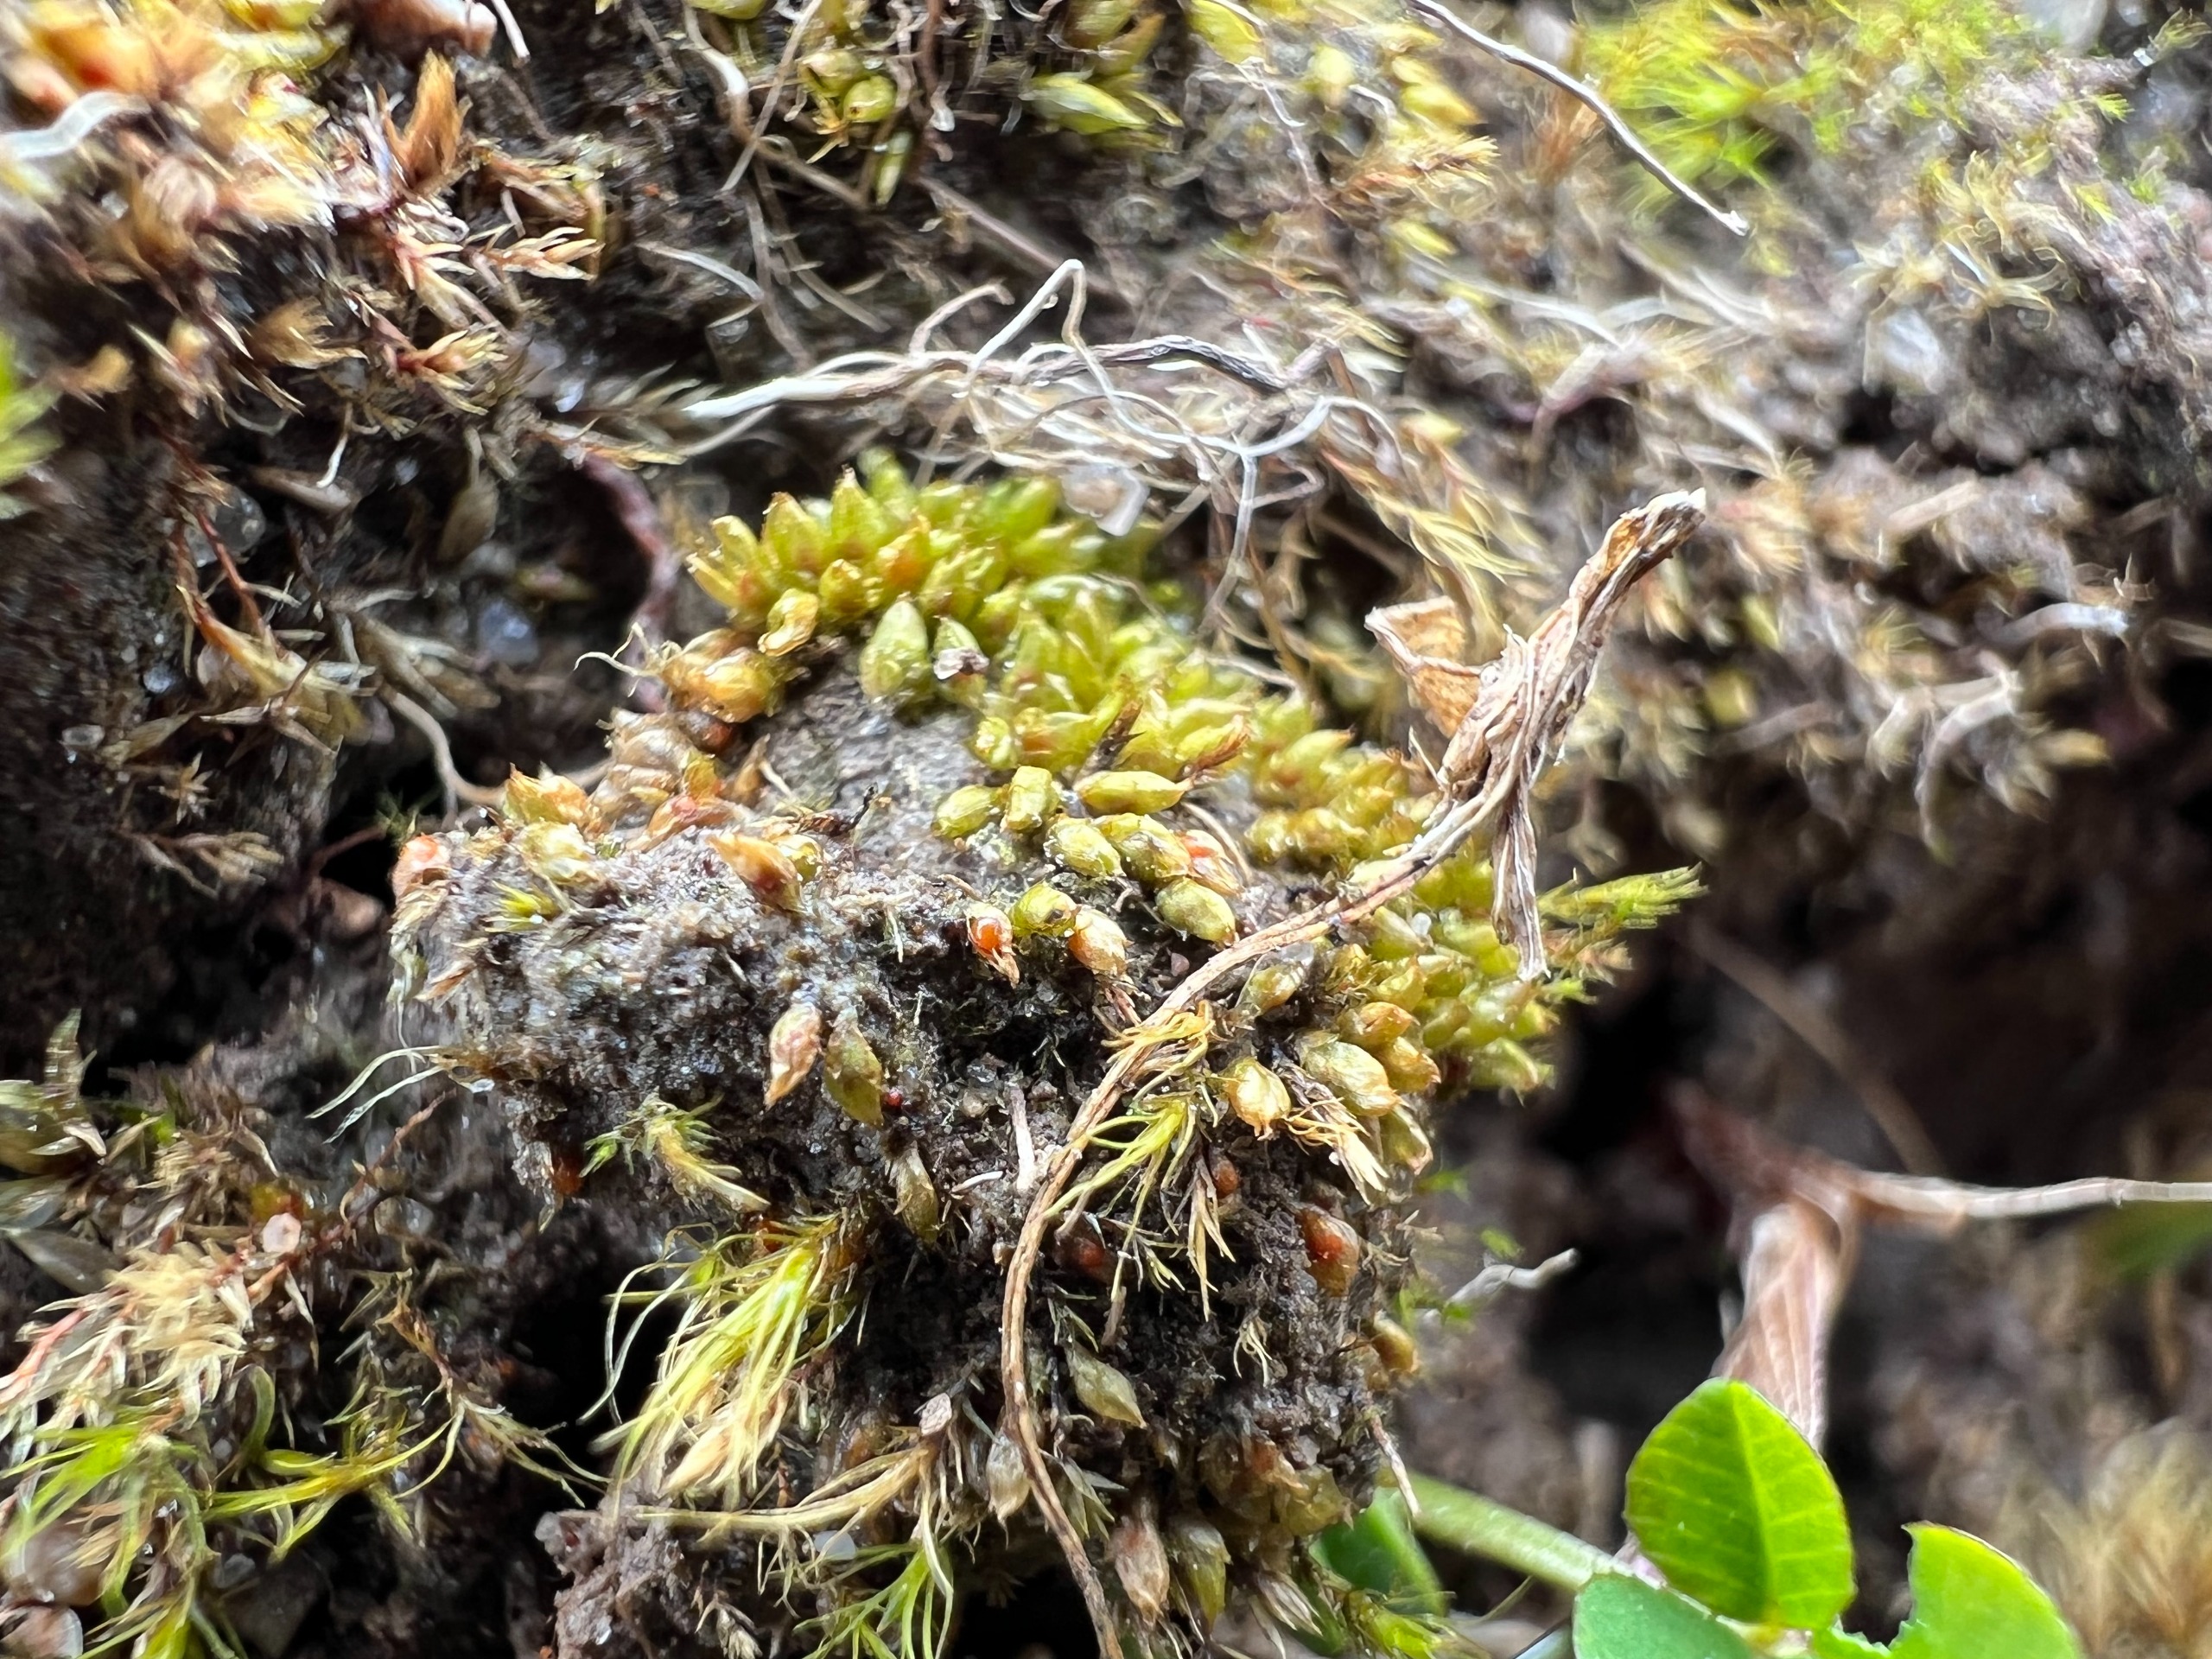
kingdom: Plantae
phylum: Bryophyta
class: Bryopsida
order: Pottiales
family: Pottiaceae
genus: Acaulon
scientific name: Acaulon muticum
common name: Siddende ægmos
